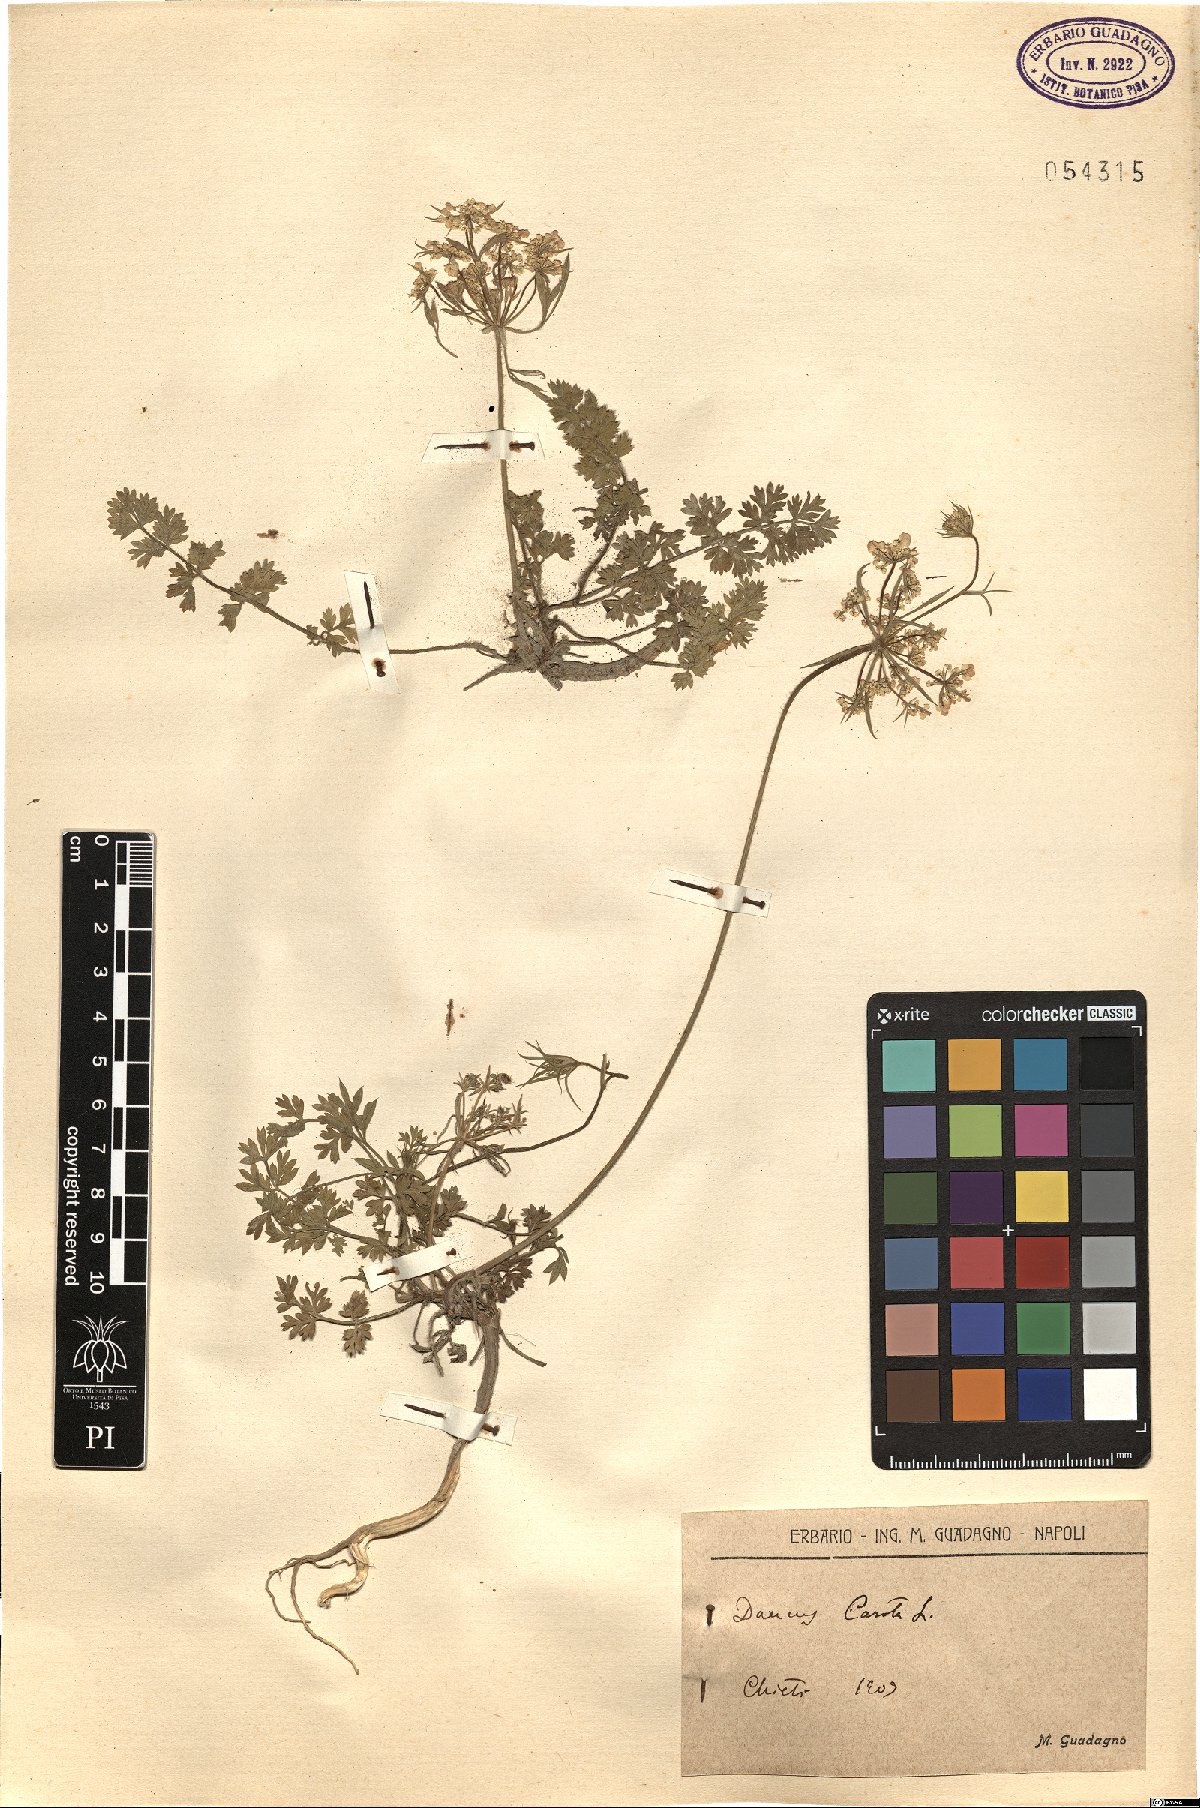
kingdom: Plantae
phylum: Tracheophyta
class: Magnoliopsida
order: Apiales
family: Apiaceae
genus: Daucus
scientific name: Daucus carota
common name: Wild carrot
